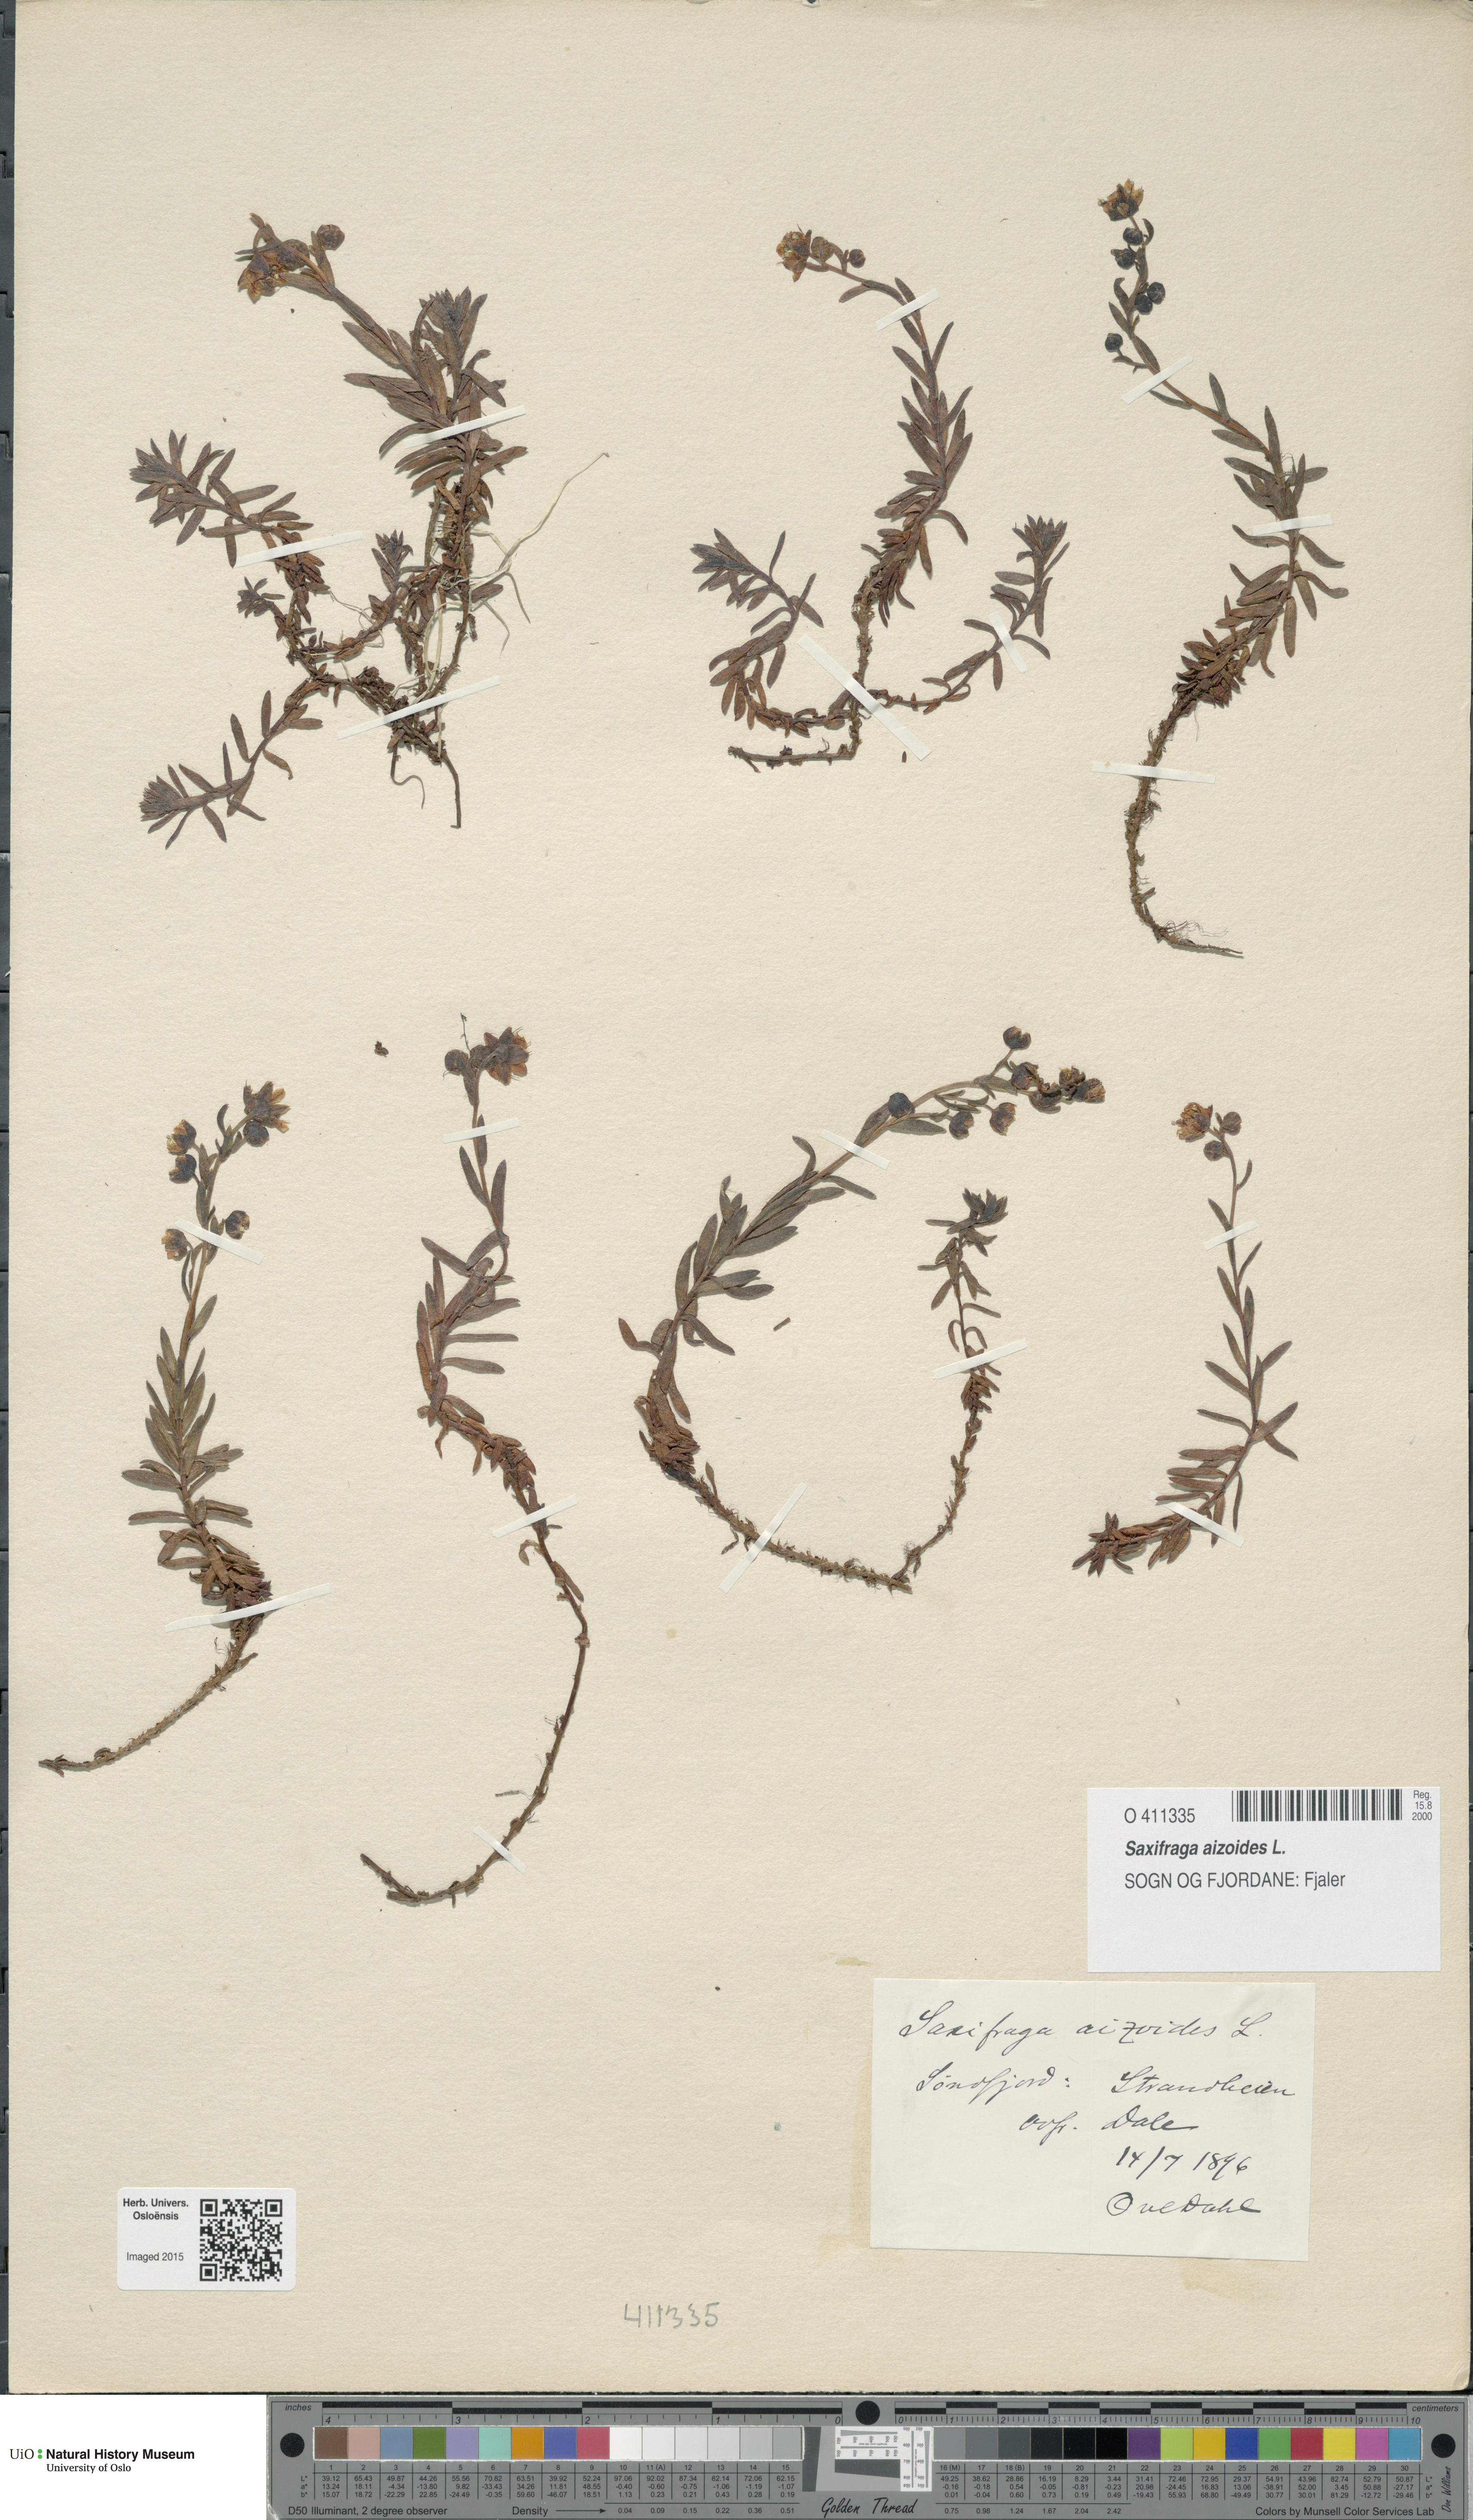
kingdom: Plantae
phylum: Tracheophyta
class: Magnoliopsida
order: Saxifragales
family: Saxifragaceae
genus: Saxifraga
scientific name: Saxifraga aizoides
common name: Yellow mountain saxifrage
